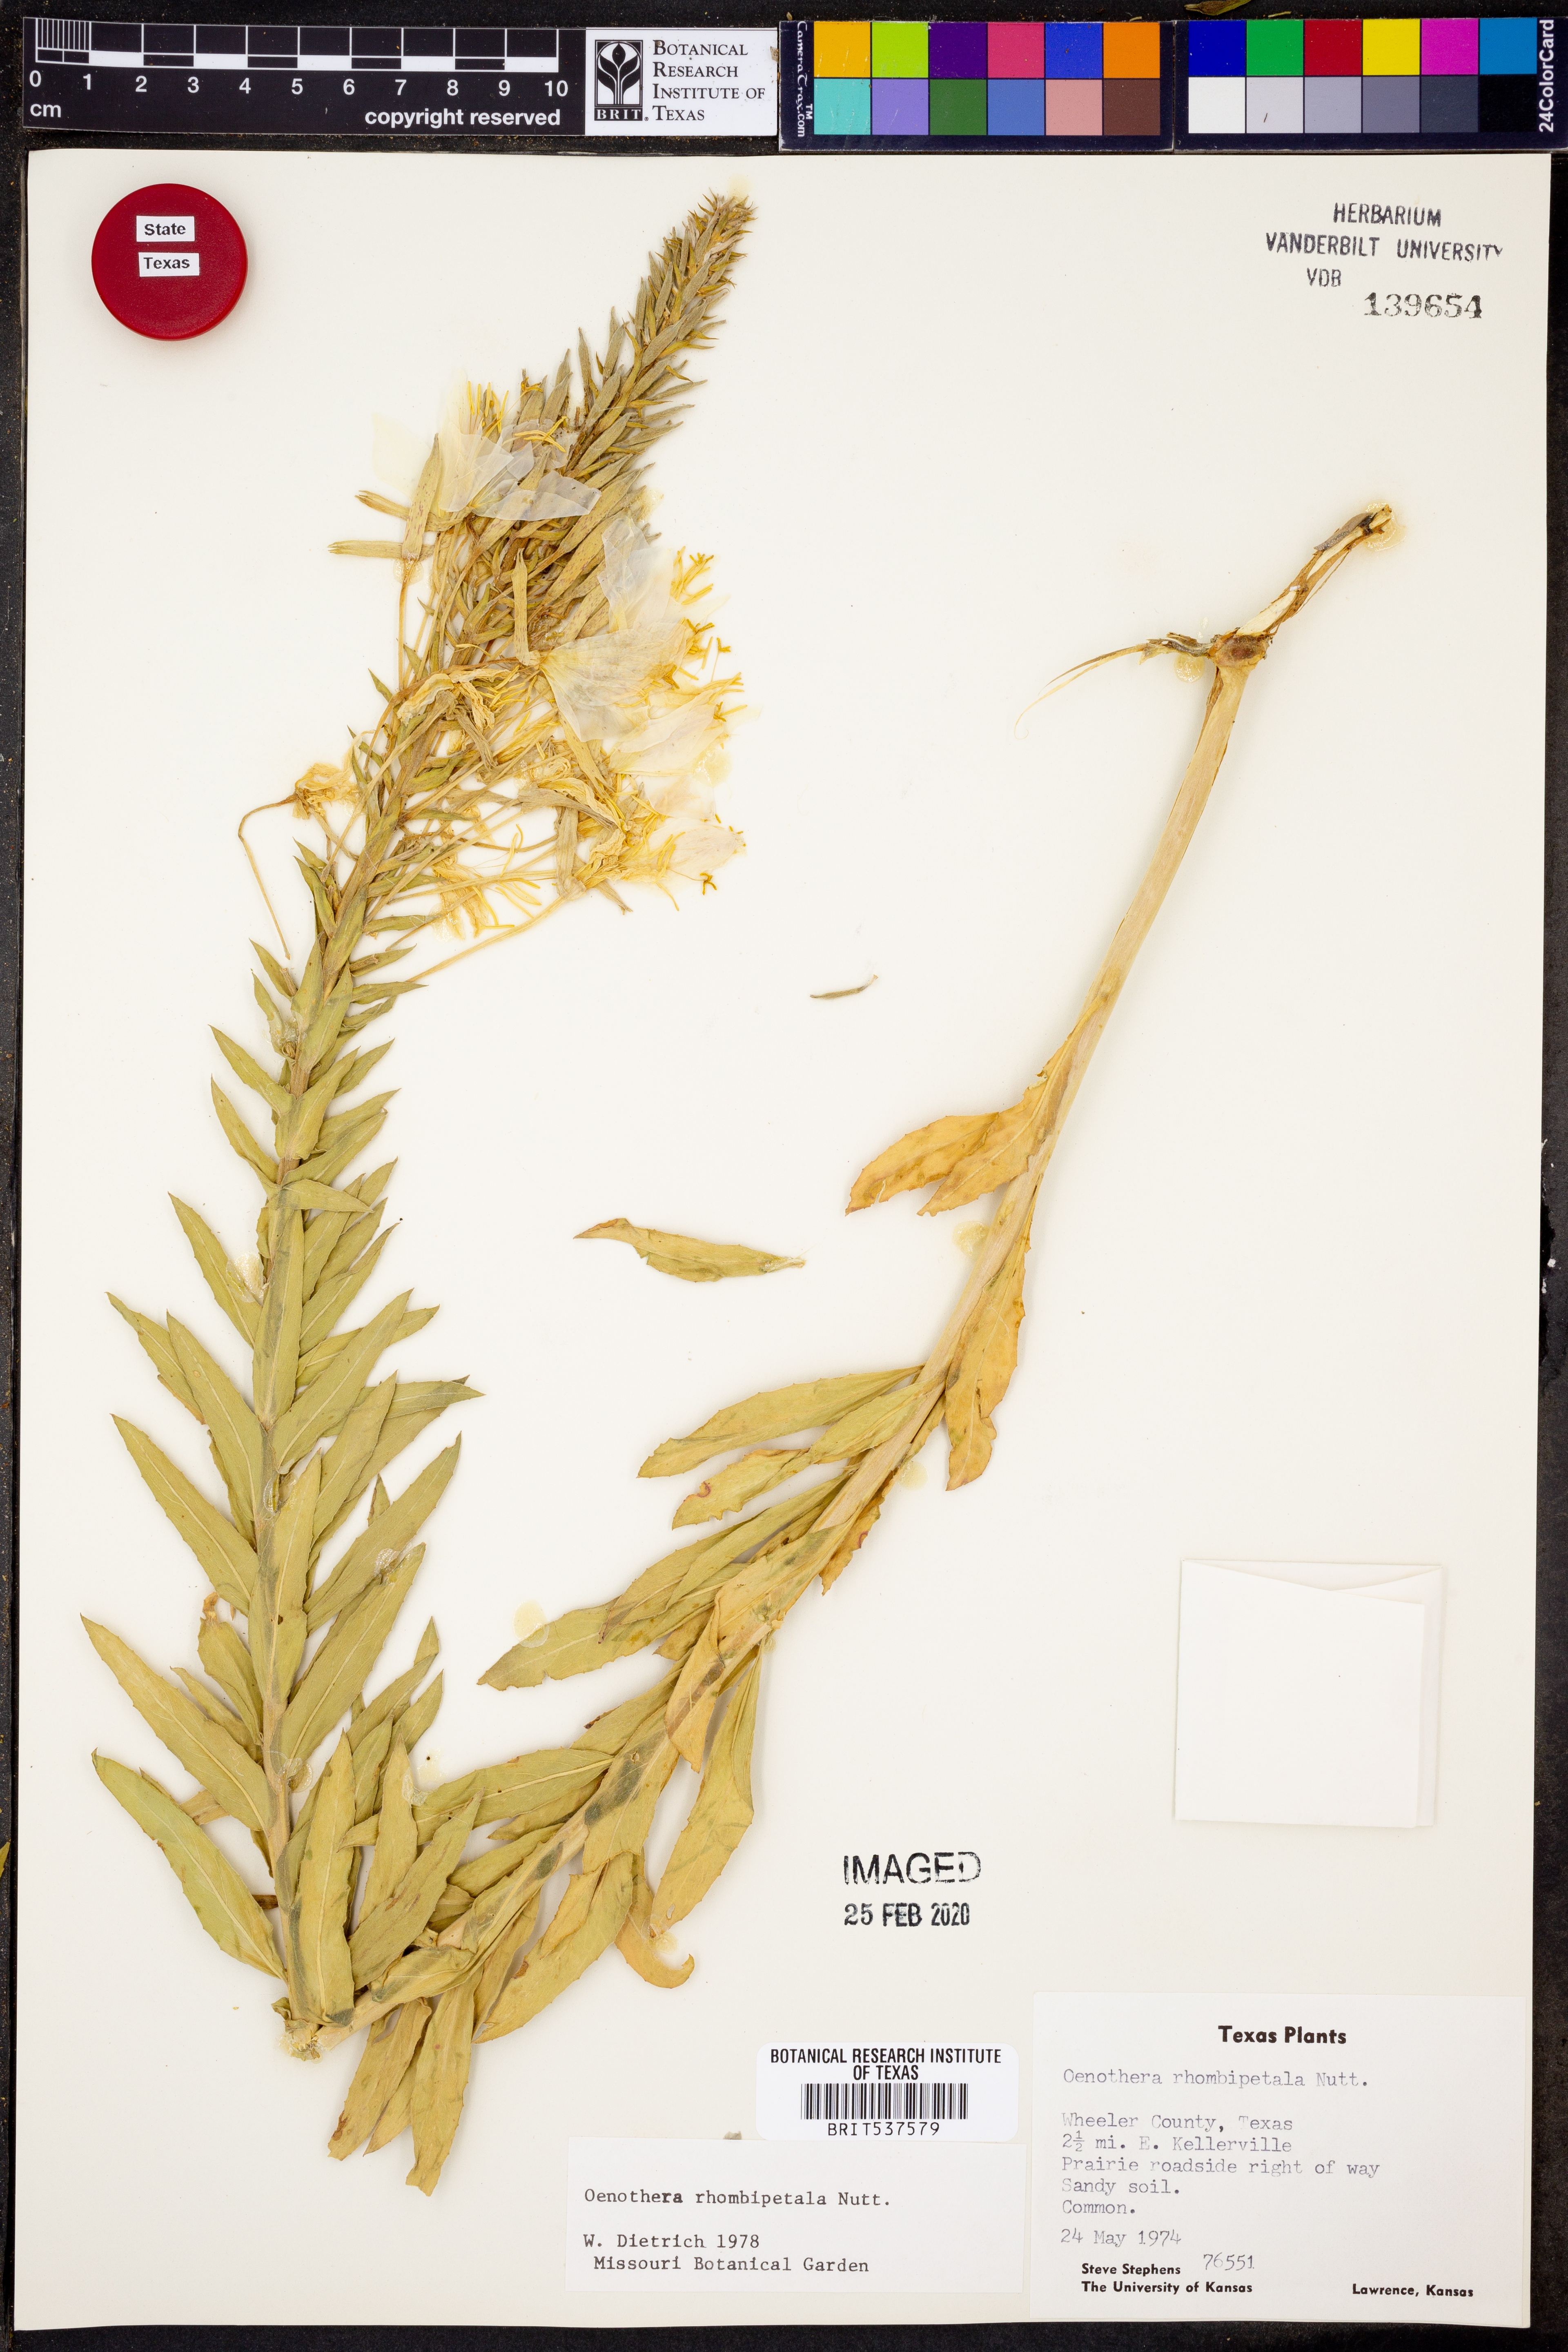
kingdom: Plantae
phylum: Tracheophyta
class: Magnoliopsida
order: Myrtales
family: Onagraceae
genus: Oenothera
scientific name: Oenothera rhombipetala
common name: Four-points evening-primrose
